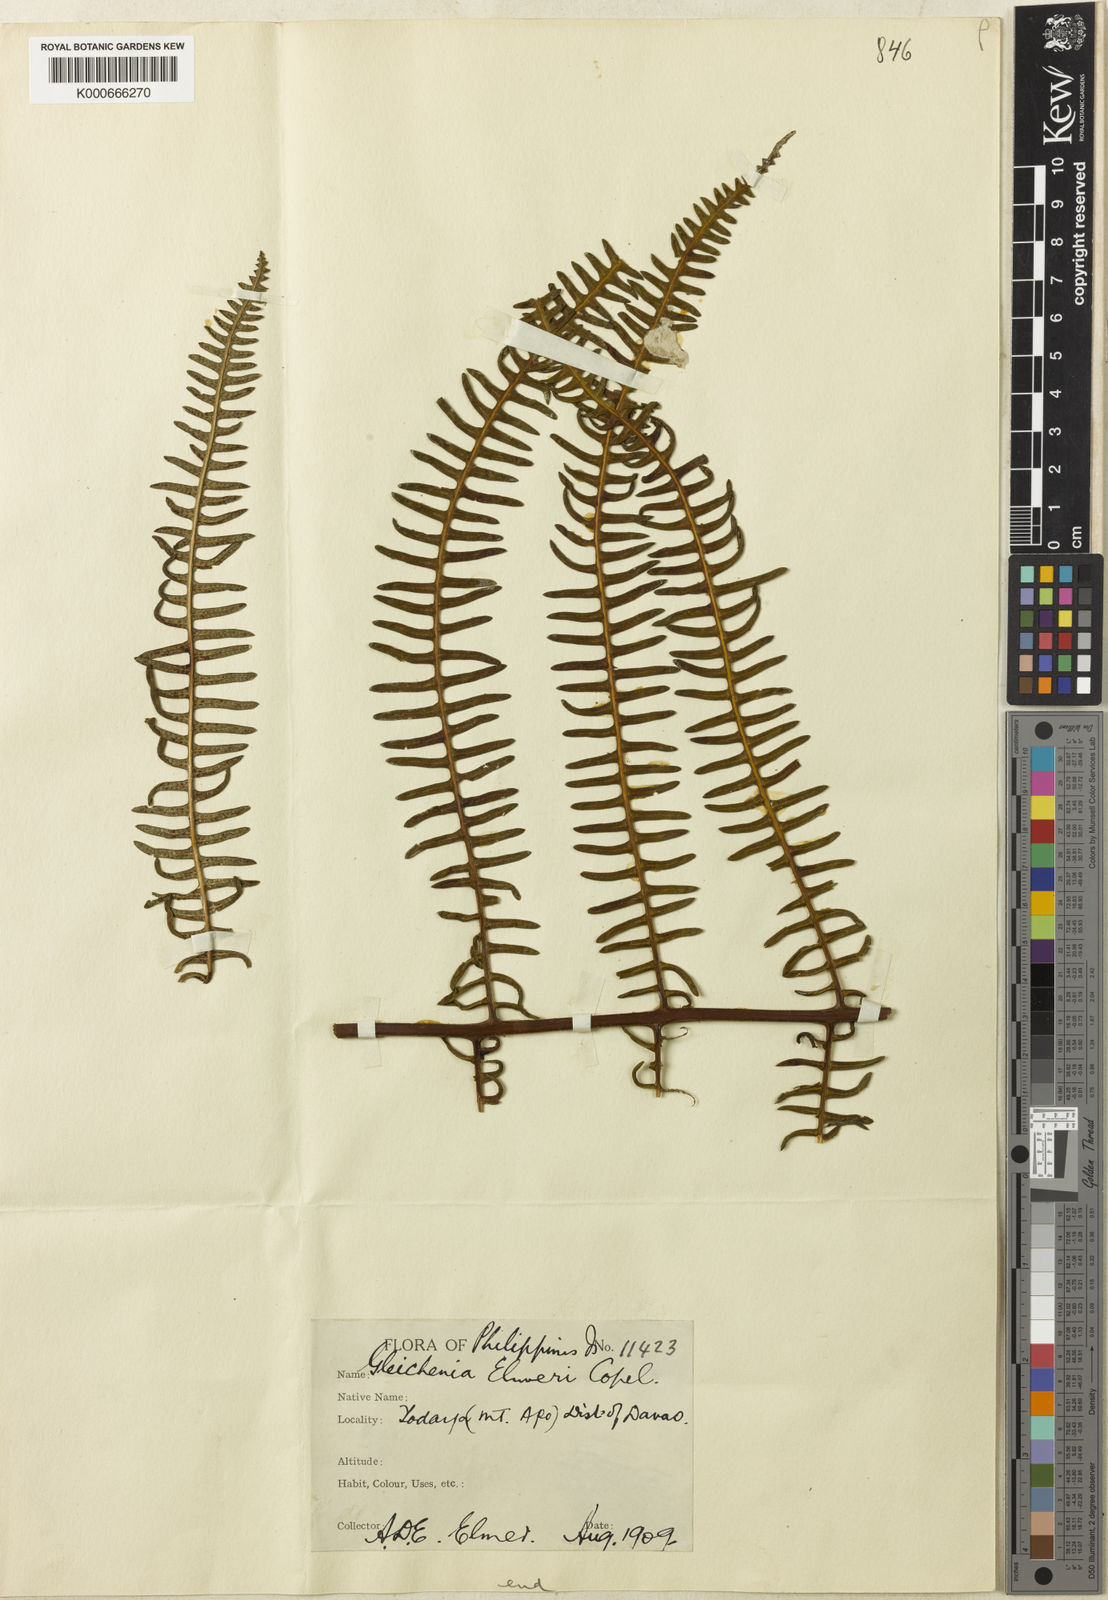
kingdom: Plantae
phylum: Tracheophyta
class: Polypodiopsida
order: Gleicheniales
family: Gleicheniaceae
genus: Diplopterygium
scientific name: Diplopterygium elmeri
